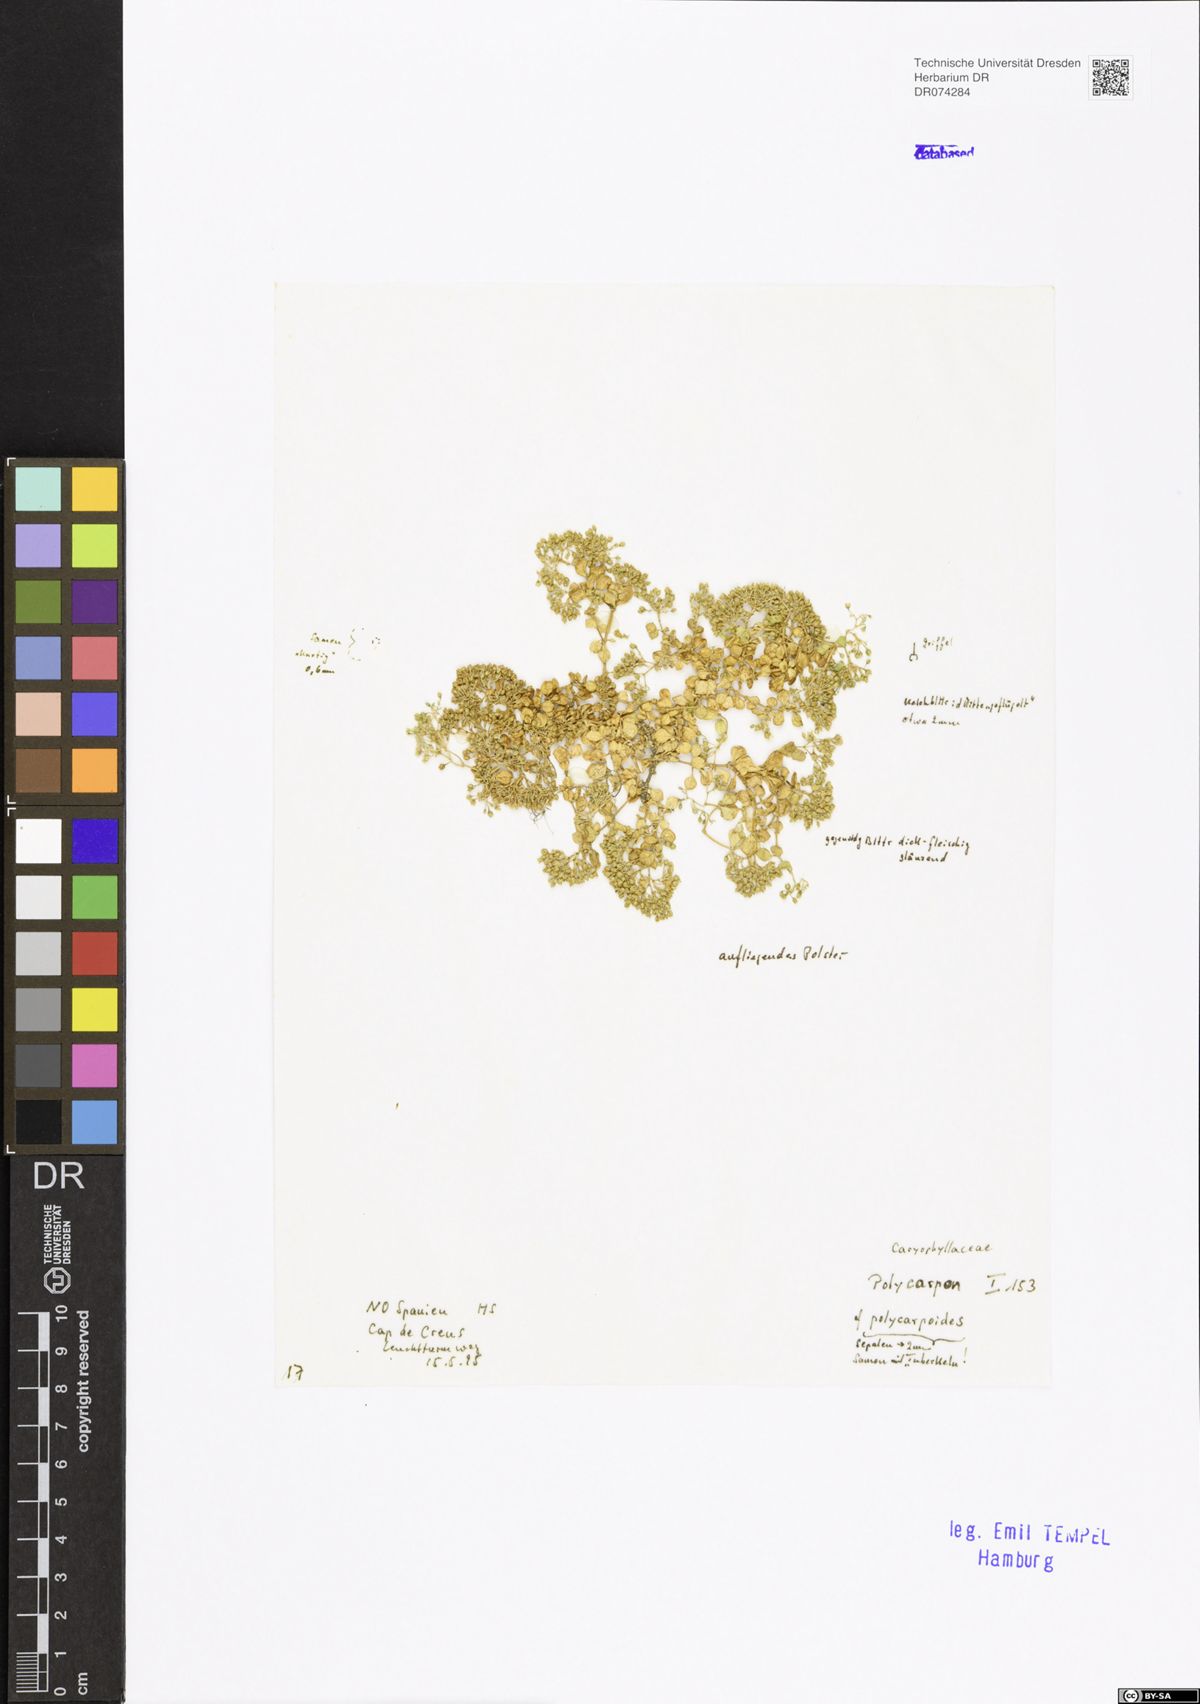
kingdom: Plantae
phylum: Tracheophyta
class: Magnoliopsida
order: Caryophyllales
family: Caryophyllaceae
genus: Polycarpon
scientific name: Polycarpon polycarpoides
